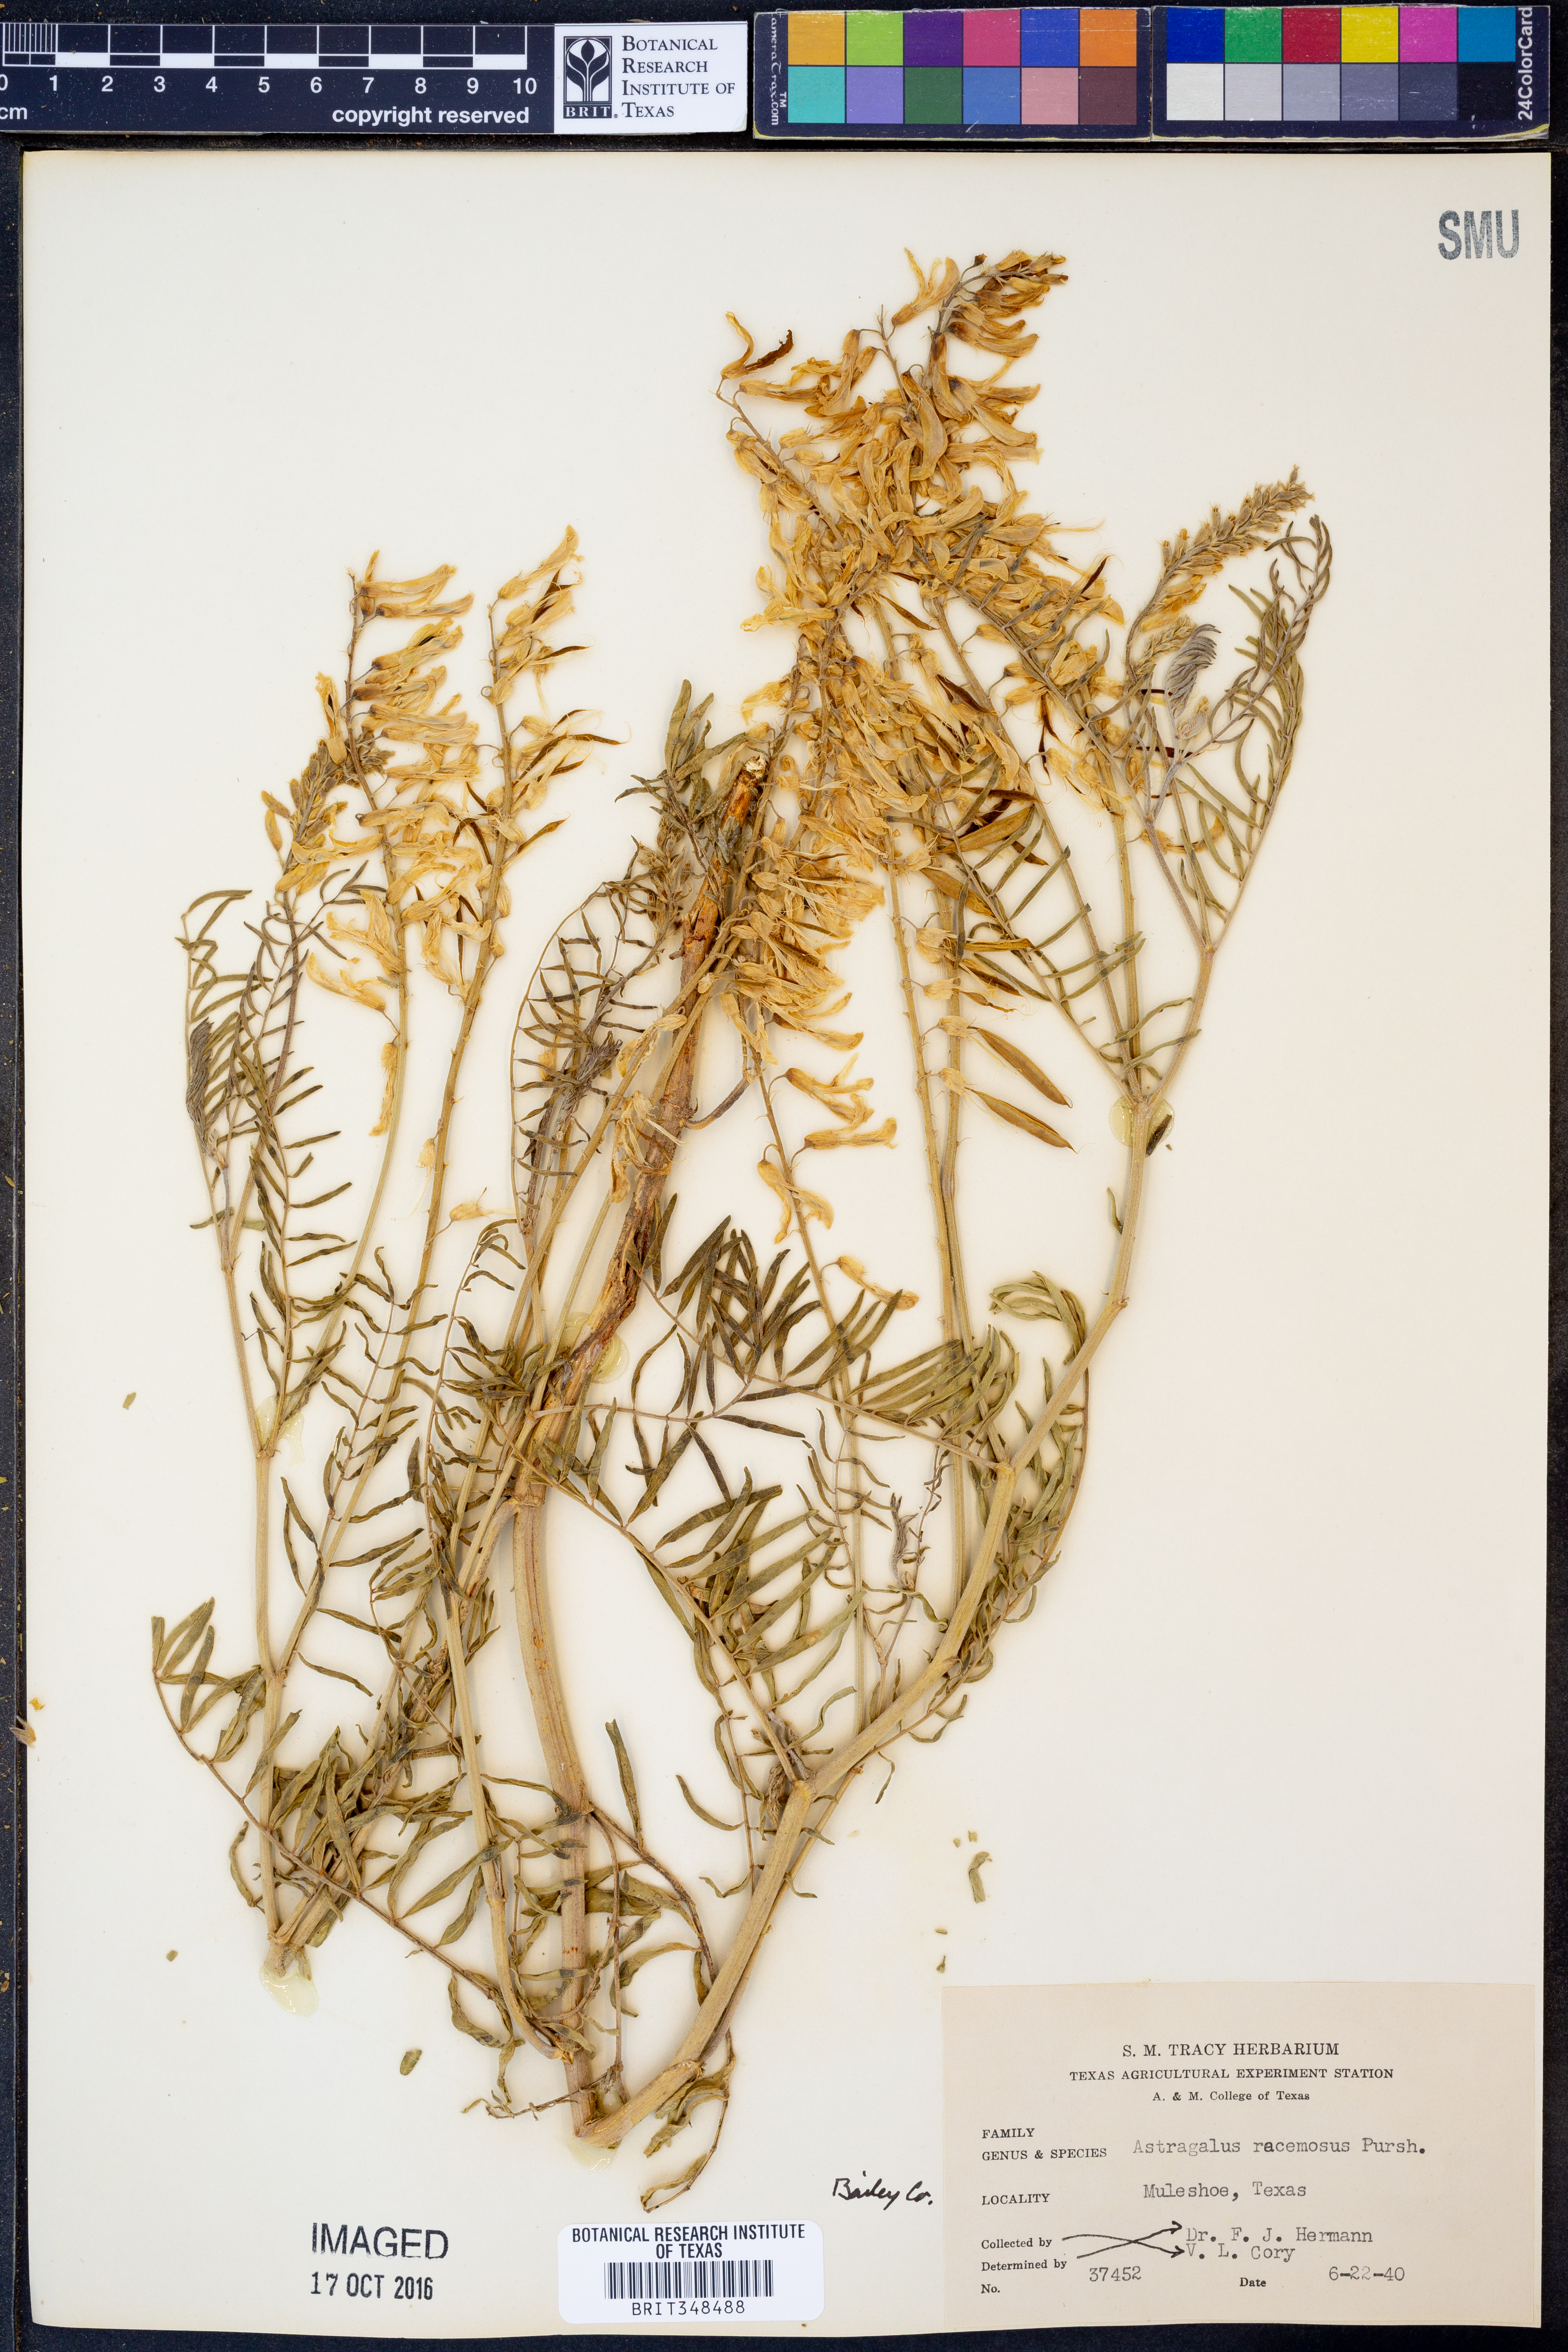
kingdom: Plantae
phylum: Tracheophyta
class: Magnoliopsida
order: Fabales
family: Fabaceae
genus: Astragalus
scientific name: Astragalus racemosus
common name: Alkali milk-vetch
